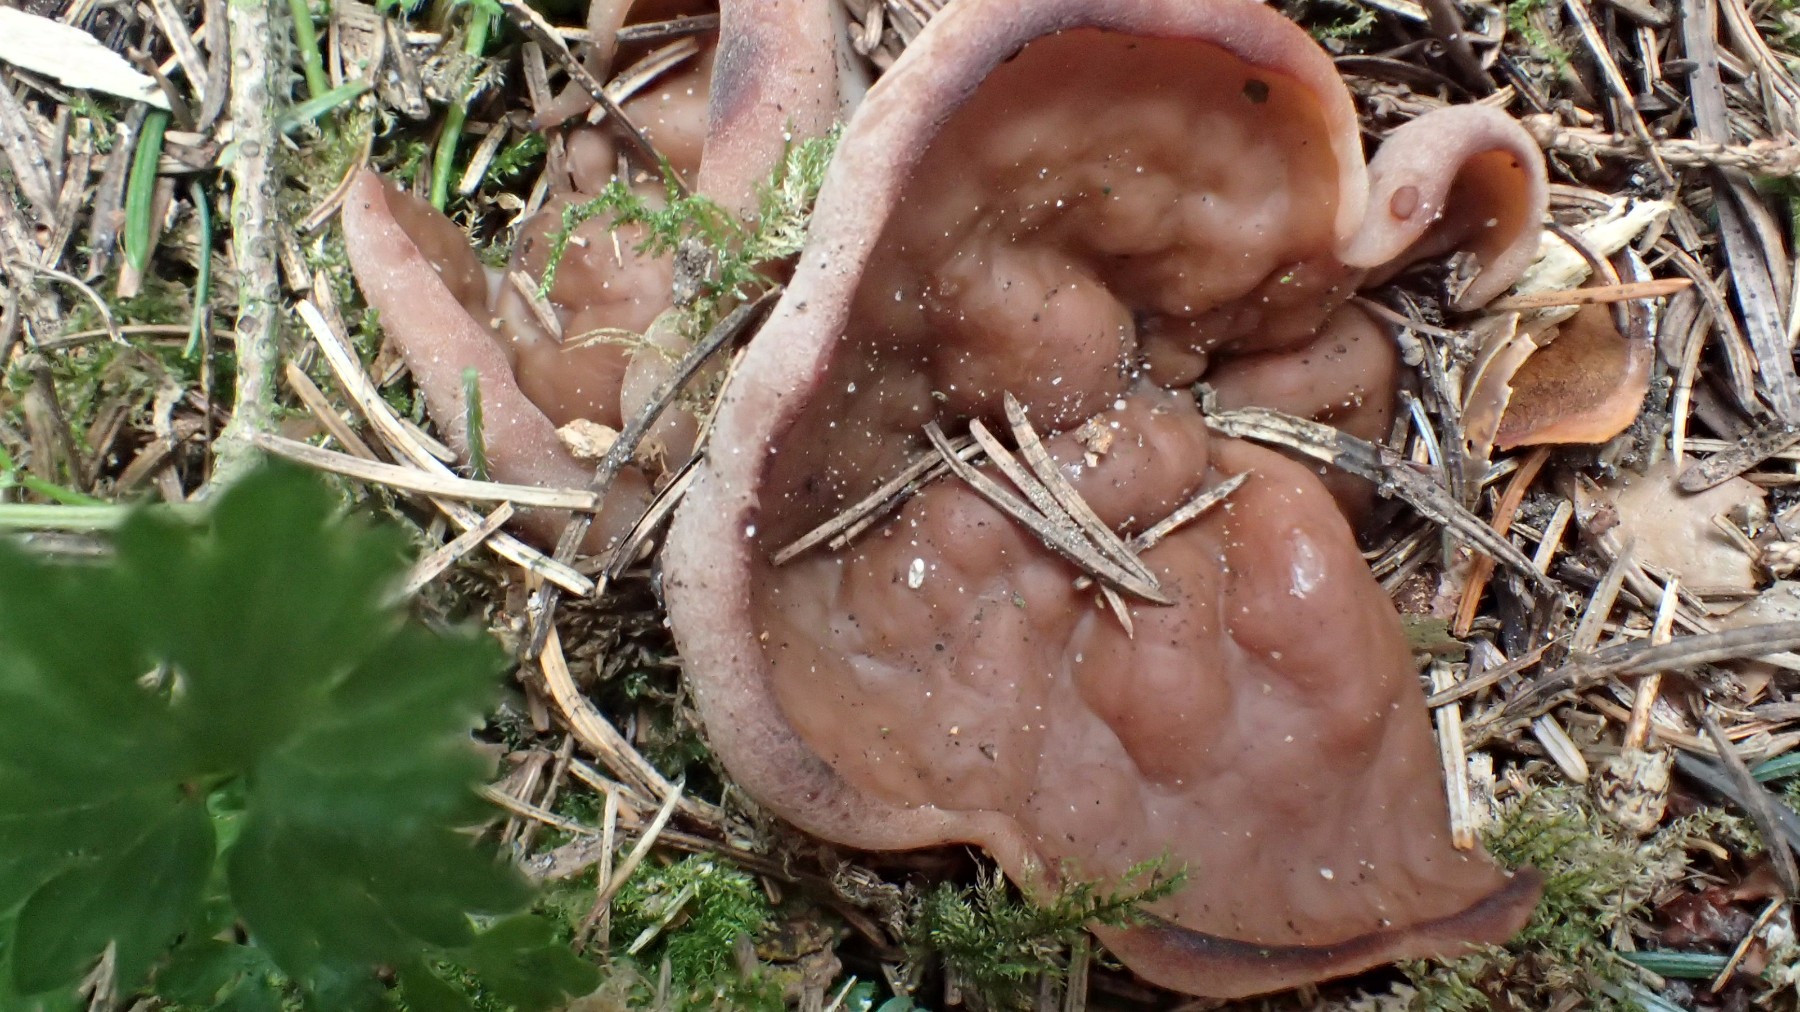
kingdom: Fungi
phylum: Ascomycota
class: Pezizomycetes
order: Pezizales
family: Discinaceae
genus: Discina
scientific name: Discina ancilis
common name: udbredt stenmorkel
